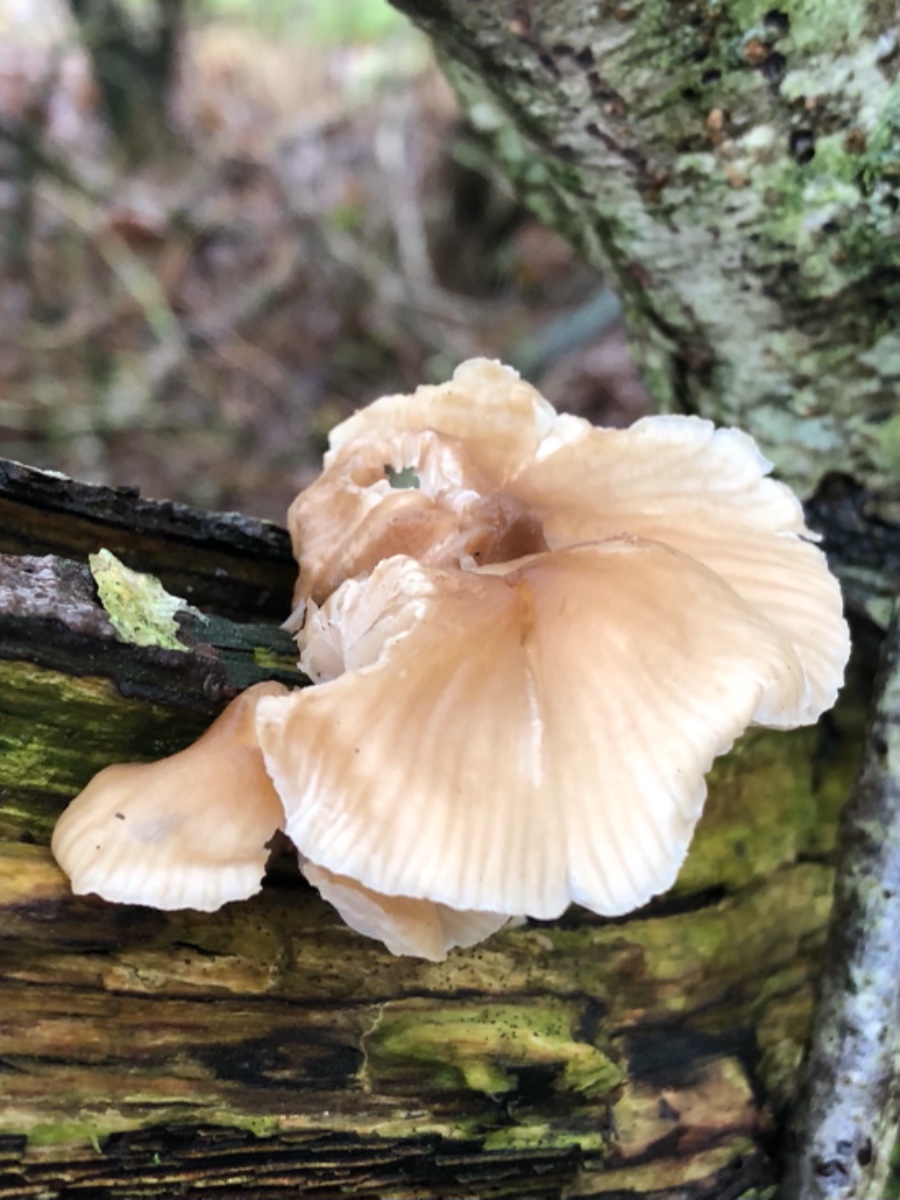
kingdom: Fungi
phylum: Basidiomycota
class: Agaricomycetes
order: Agaricales
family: Mycenaceae
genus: Mycena
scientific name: Mycena galericulata
